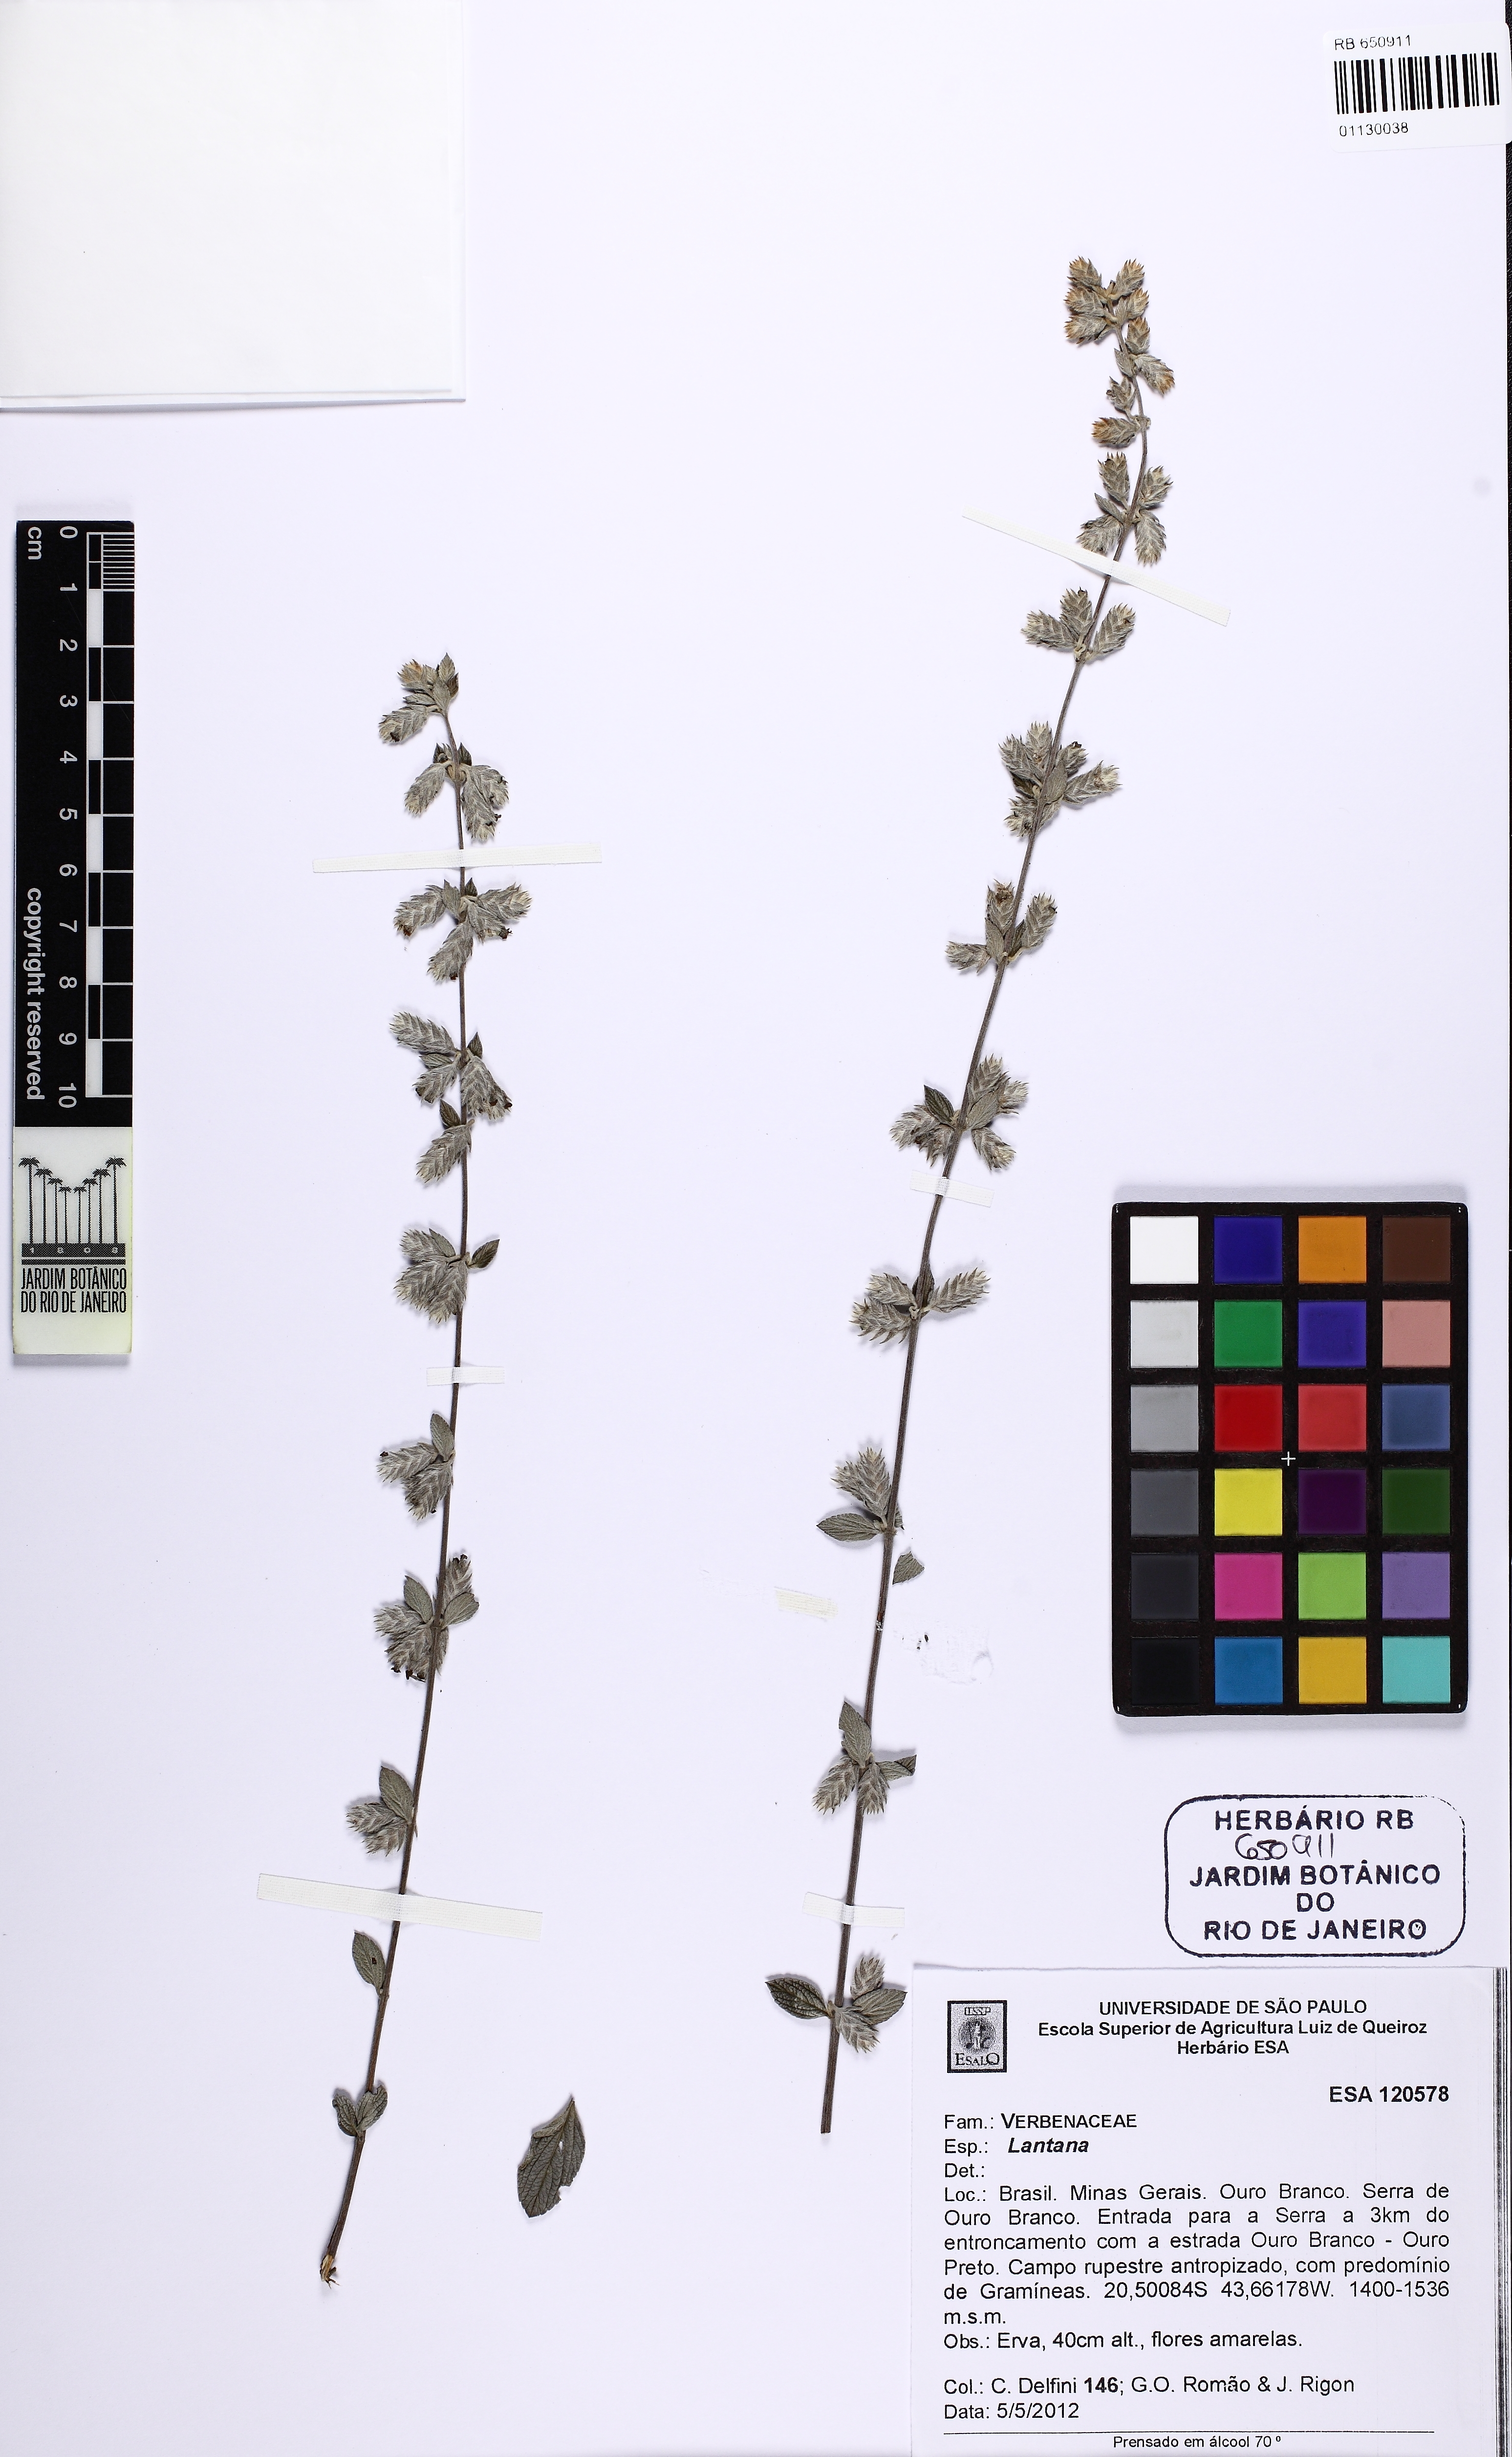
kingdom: Plantae
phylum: Tracheophyta
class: Magnoliopsida
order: Lamiales
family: Verbenaceae
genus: Lantana
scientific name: Lantana
